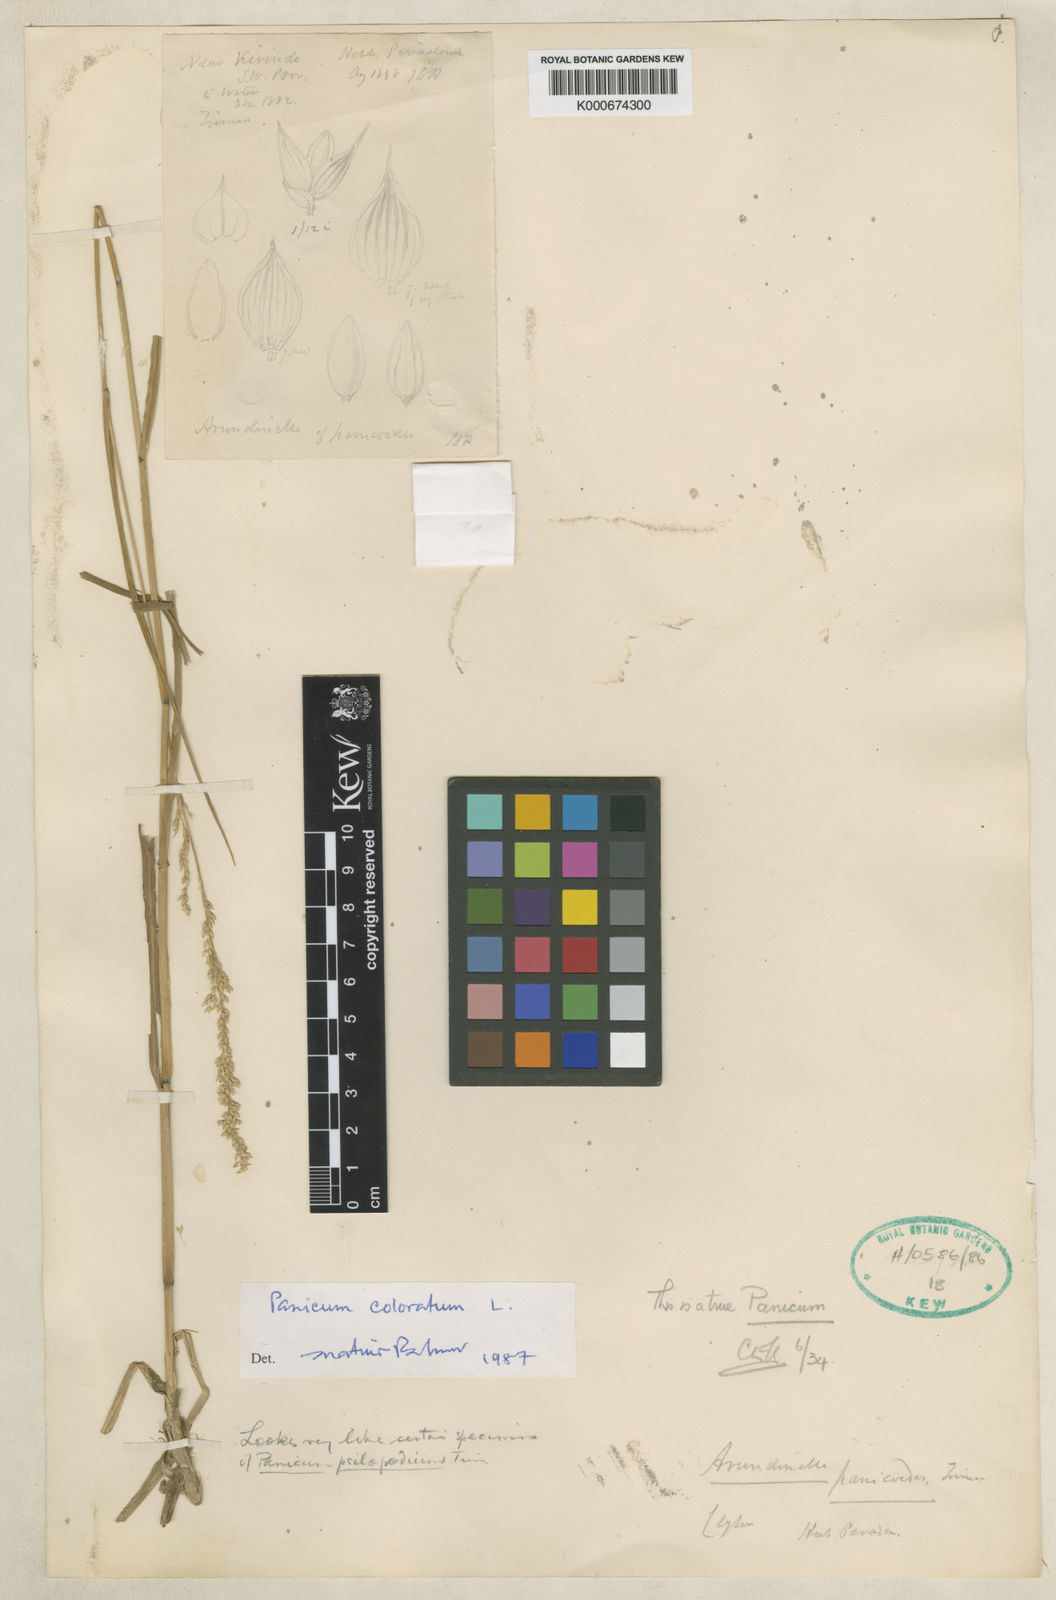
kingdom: Plantae
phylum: Tracheophyta
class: Liliopsida
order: Poales
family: Poaceae
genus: Arundinella
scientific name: Arundinella
